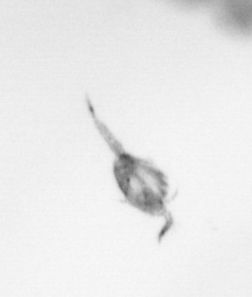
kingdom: Animalia
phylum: Arthropoda
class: Copepoda
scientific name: Copepoda
